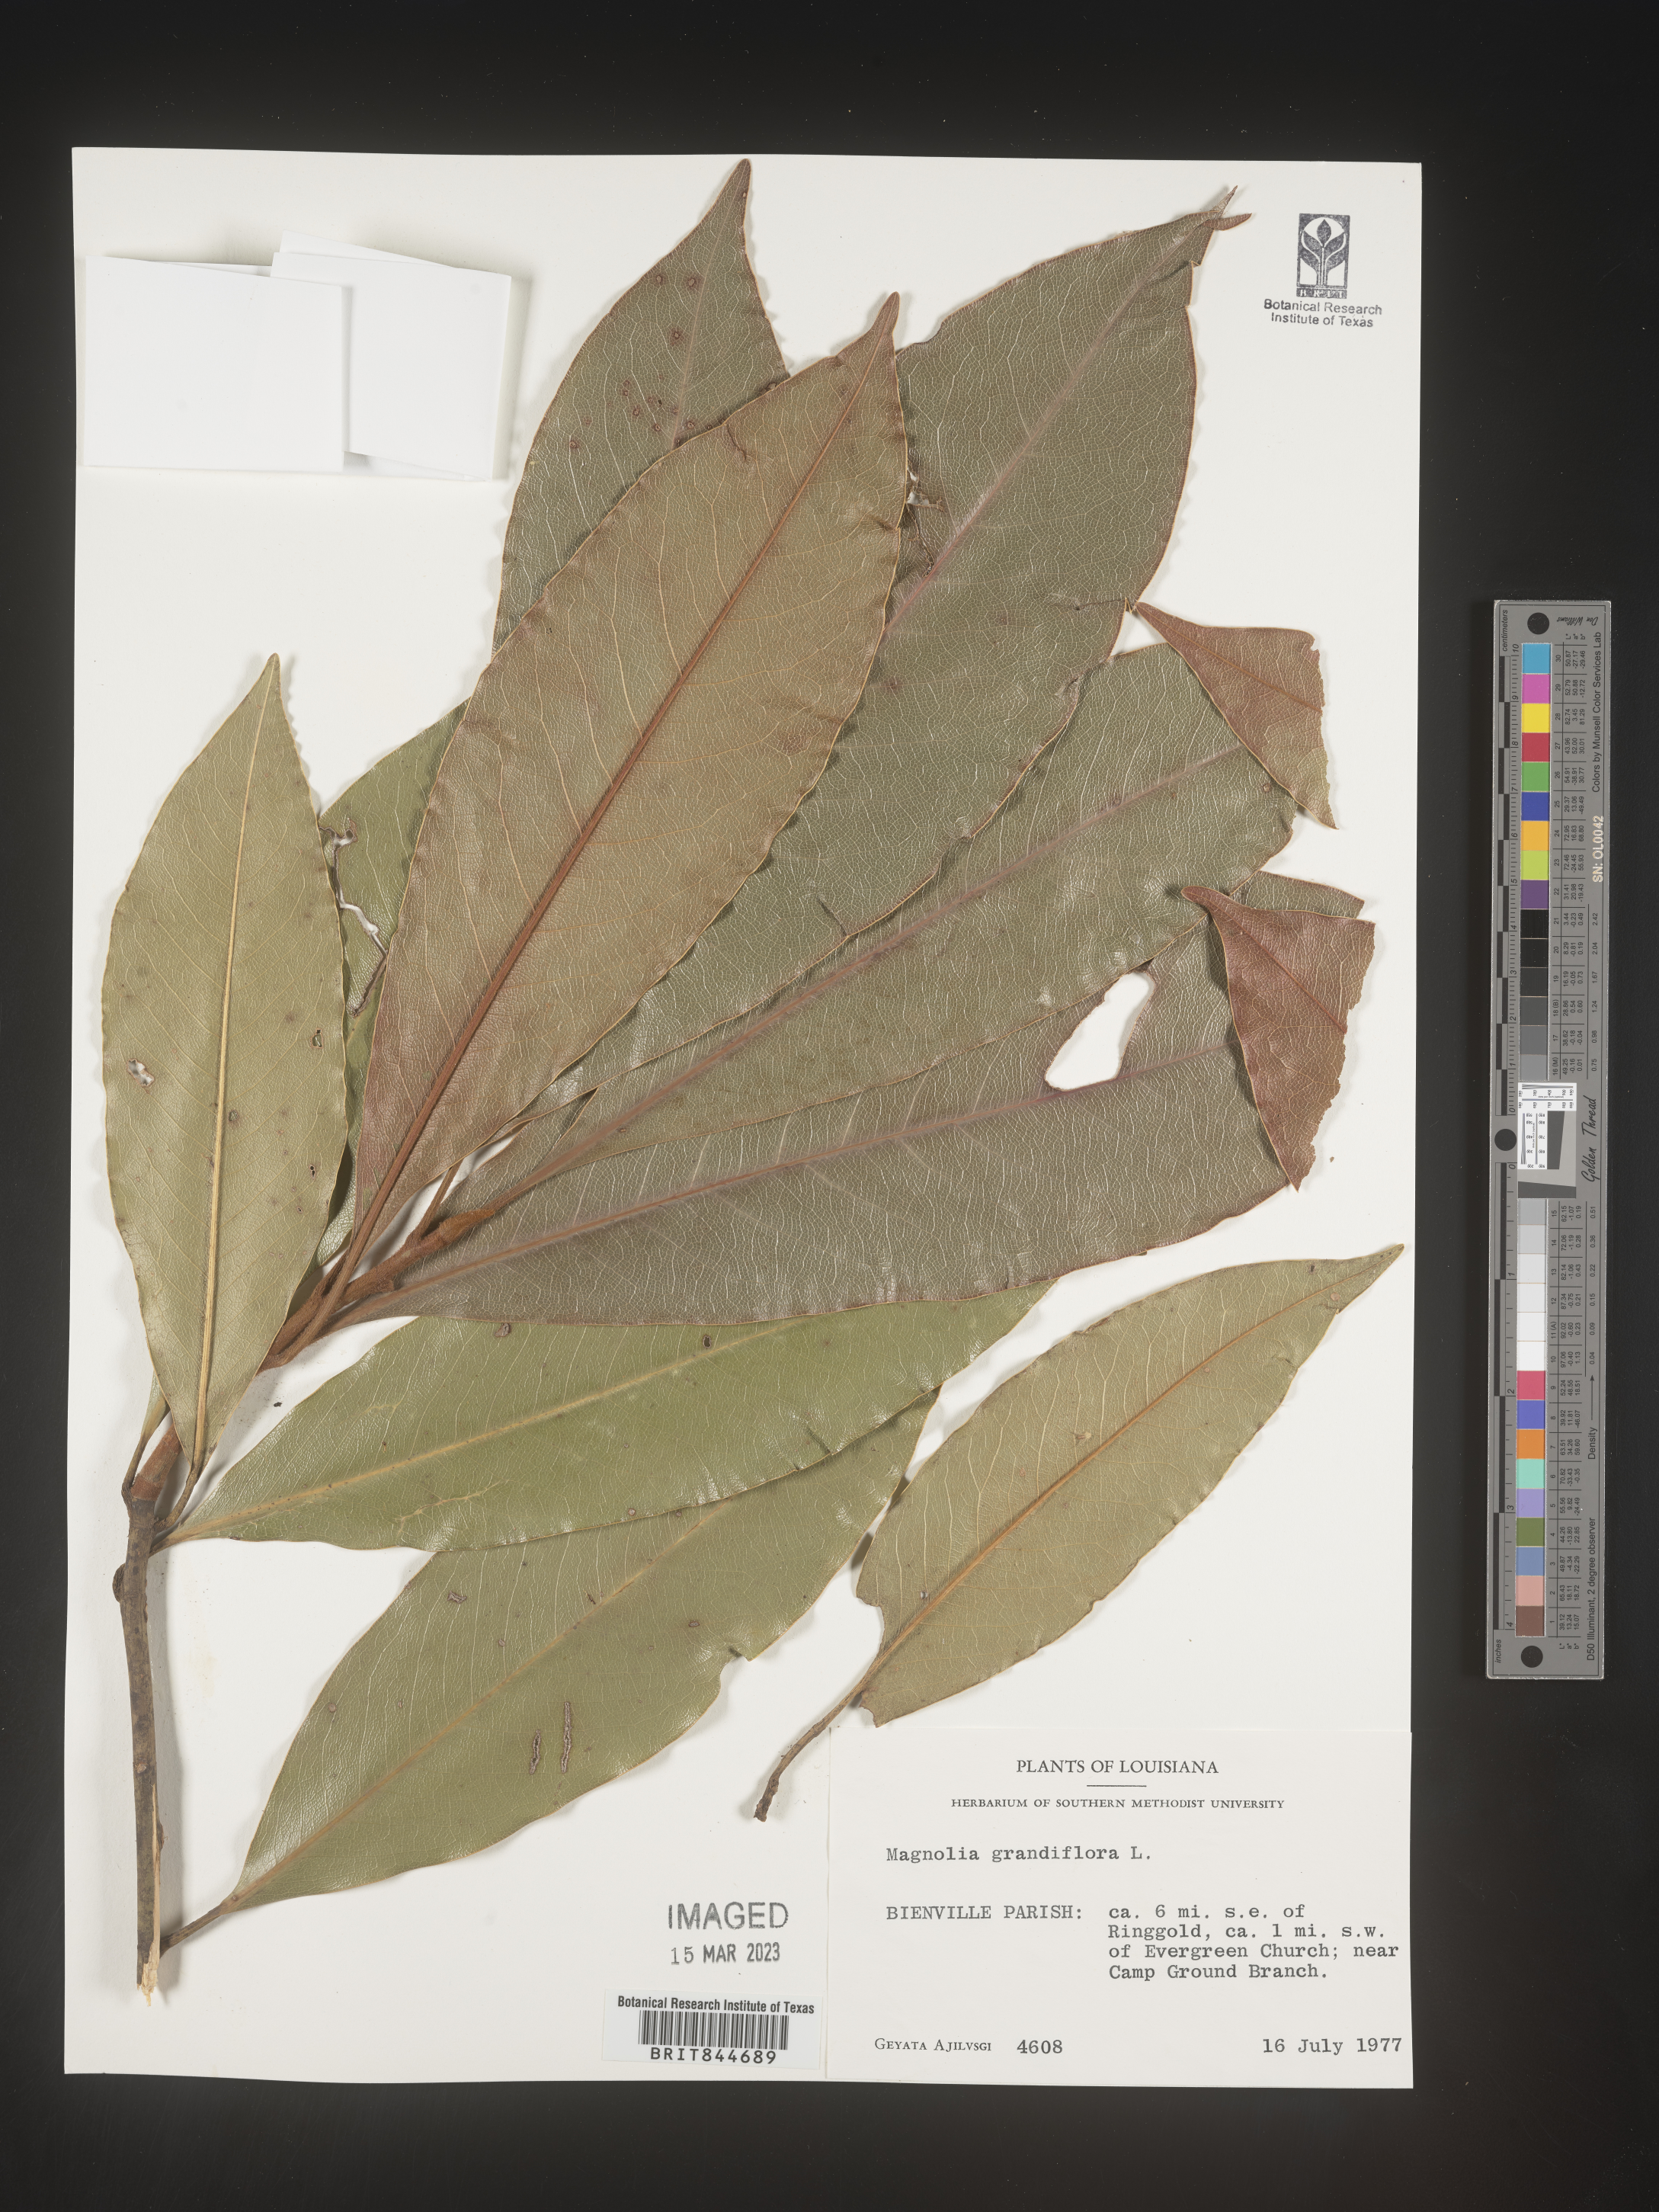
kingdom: Plantae
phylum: Tracheophyta
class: Magnoliopsida
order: Magnoliales
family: Magnoliaceae
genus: Magnolia
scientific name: Magnolia grandiflora
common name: Southern magnolia
